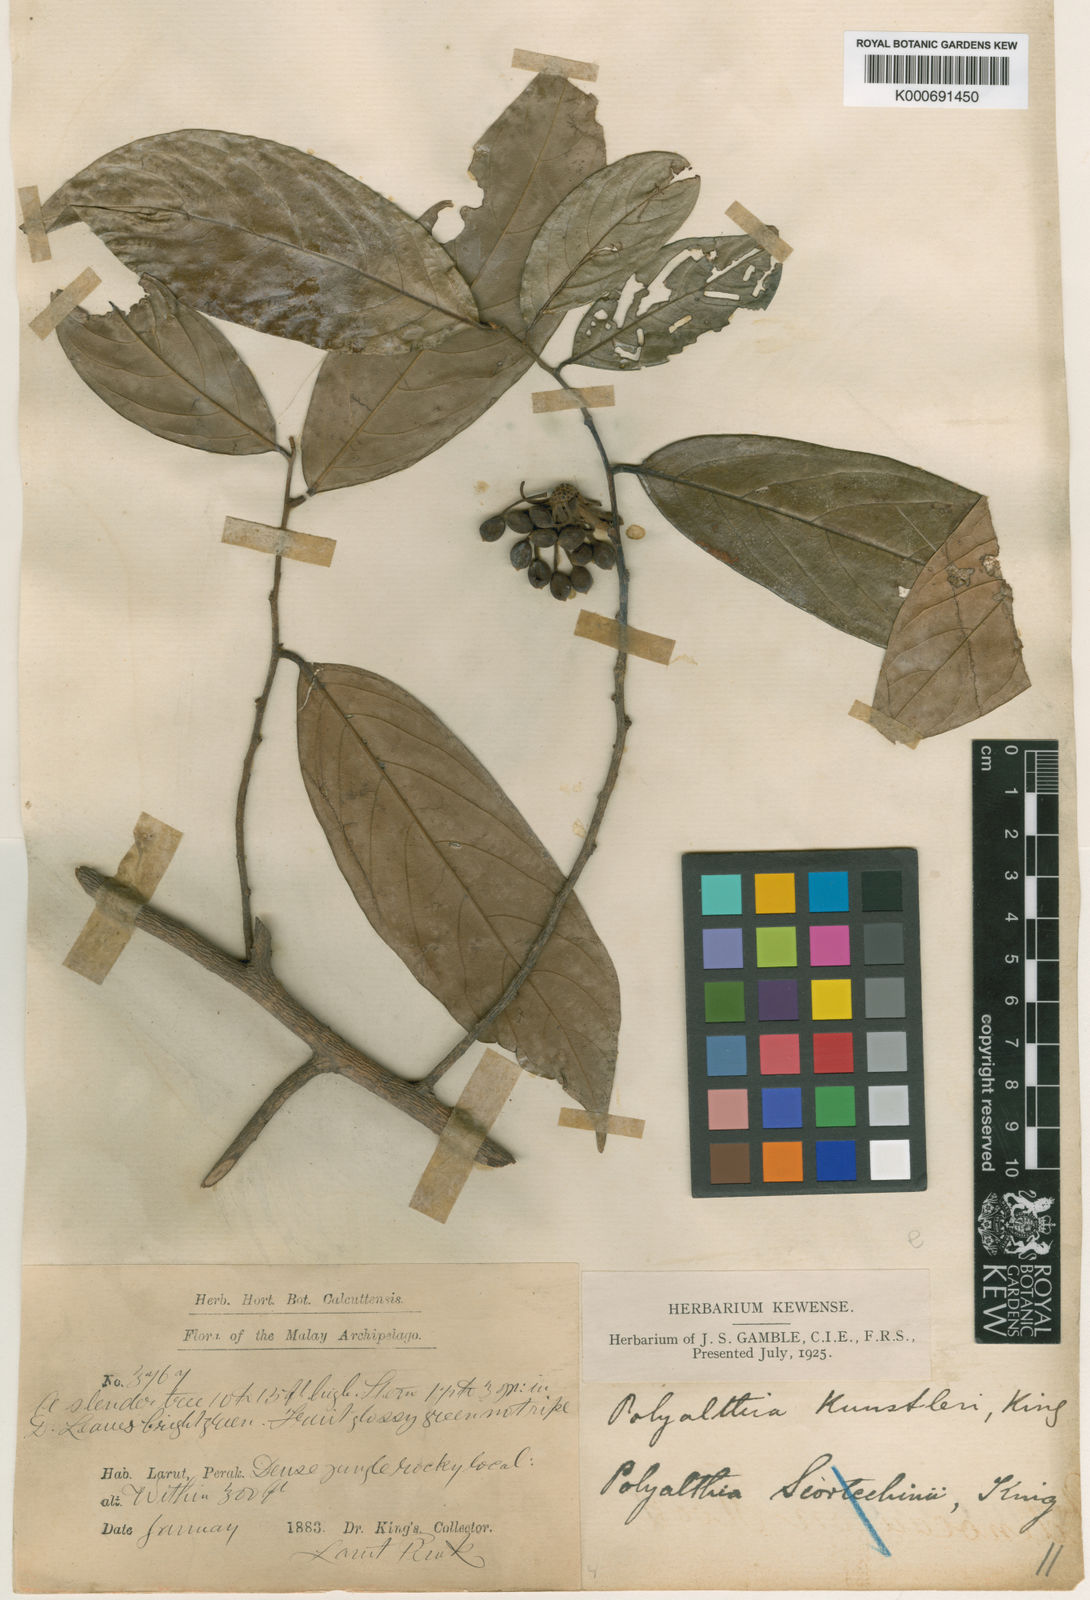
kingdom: Plantae
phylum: Tracheophyta
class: Magnoliopsida
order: Magnoliales
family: Annonaceae
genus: Hubera
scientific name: Hubera rumphii
